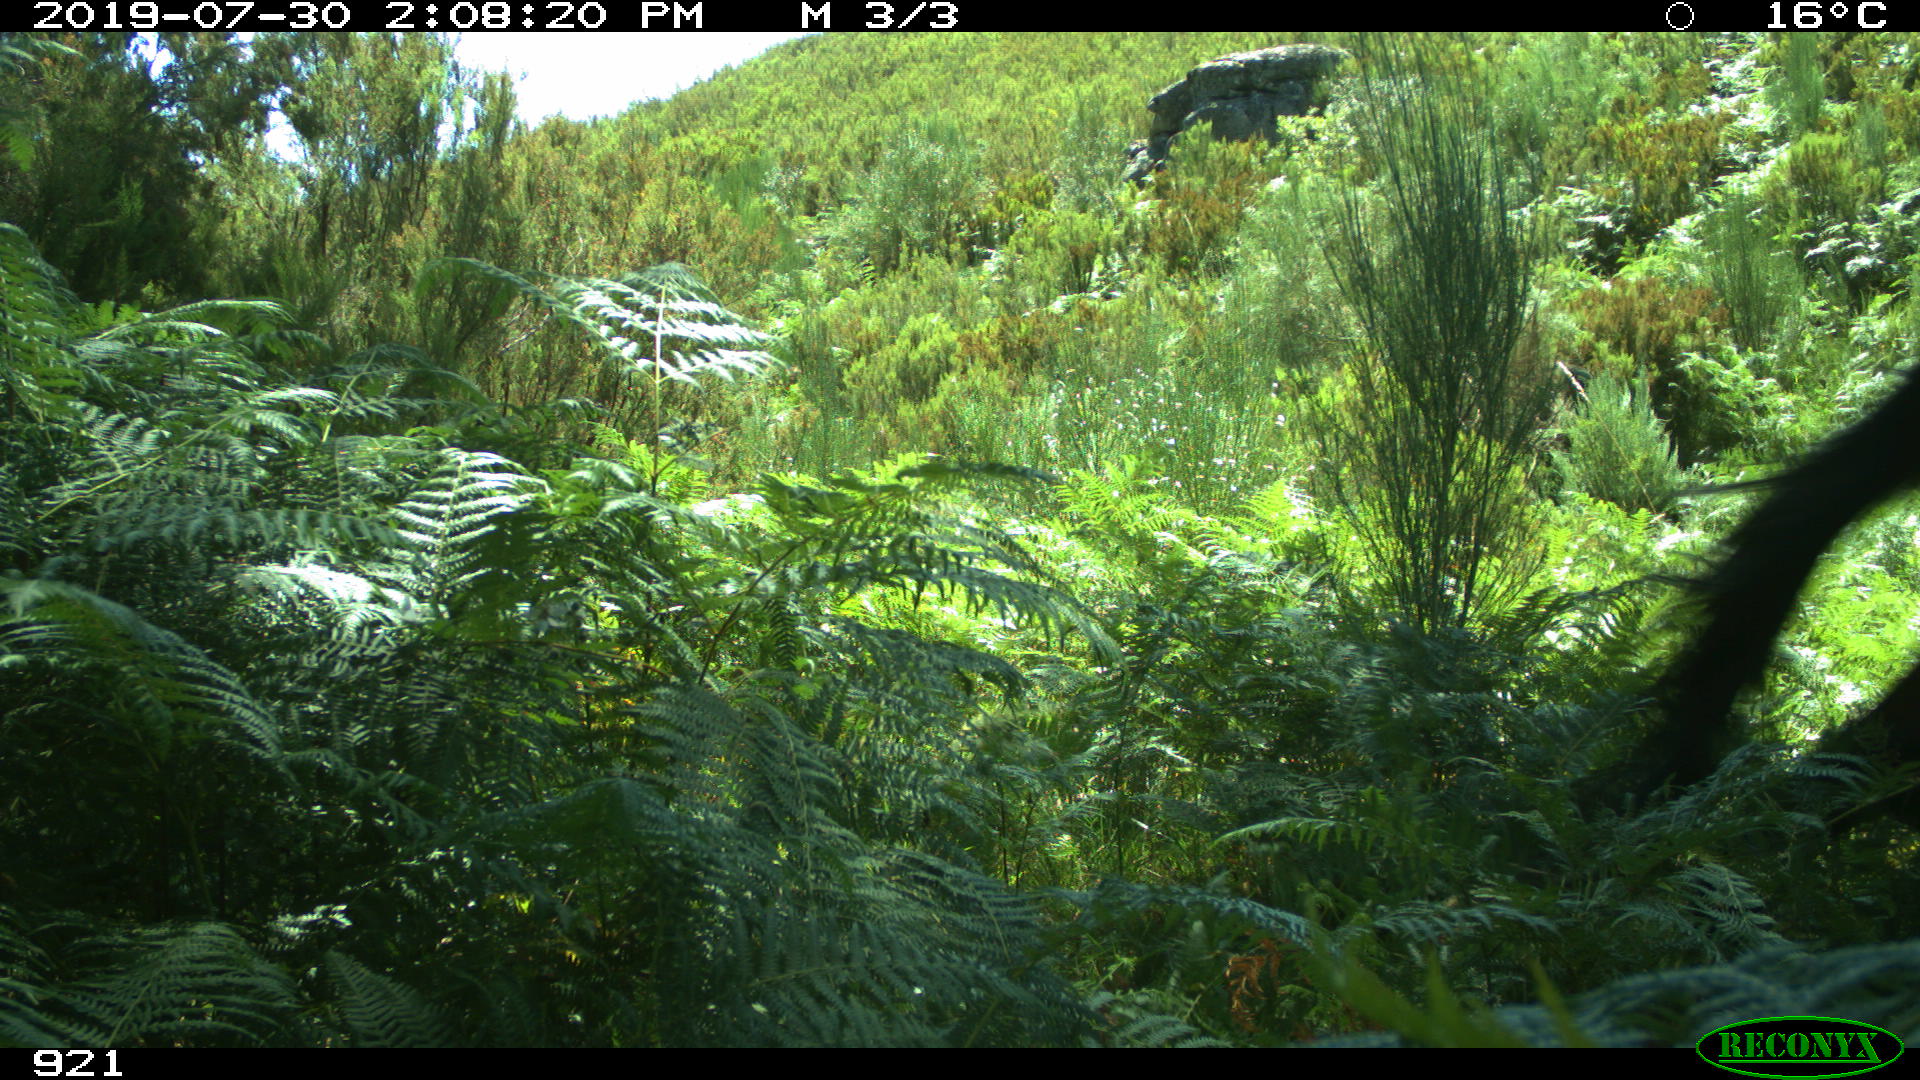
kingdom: Animalia
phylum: Chordata
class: Mammalia
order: Perissodactyla
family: Equidae
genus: Equus
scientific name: Equus caballus
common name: Horse
